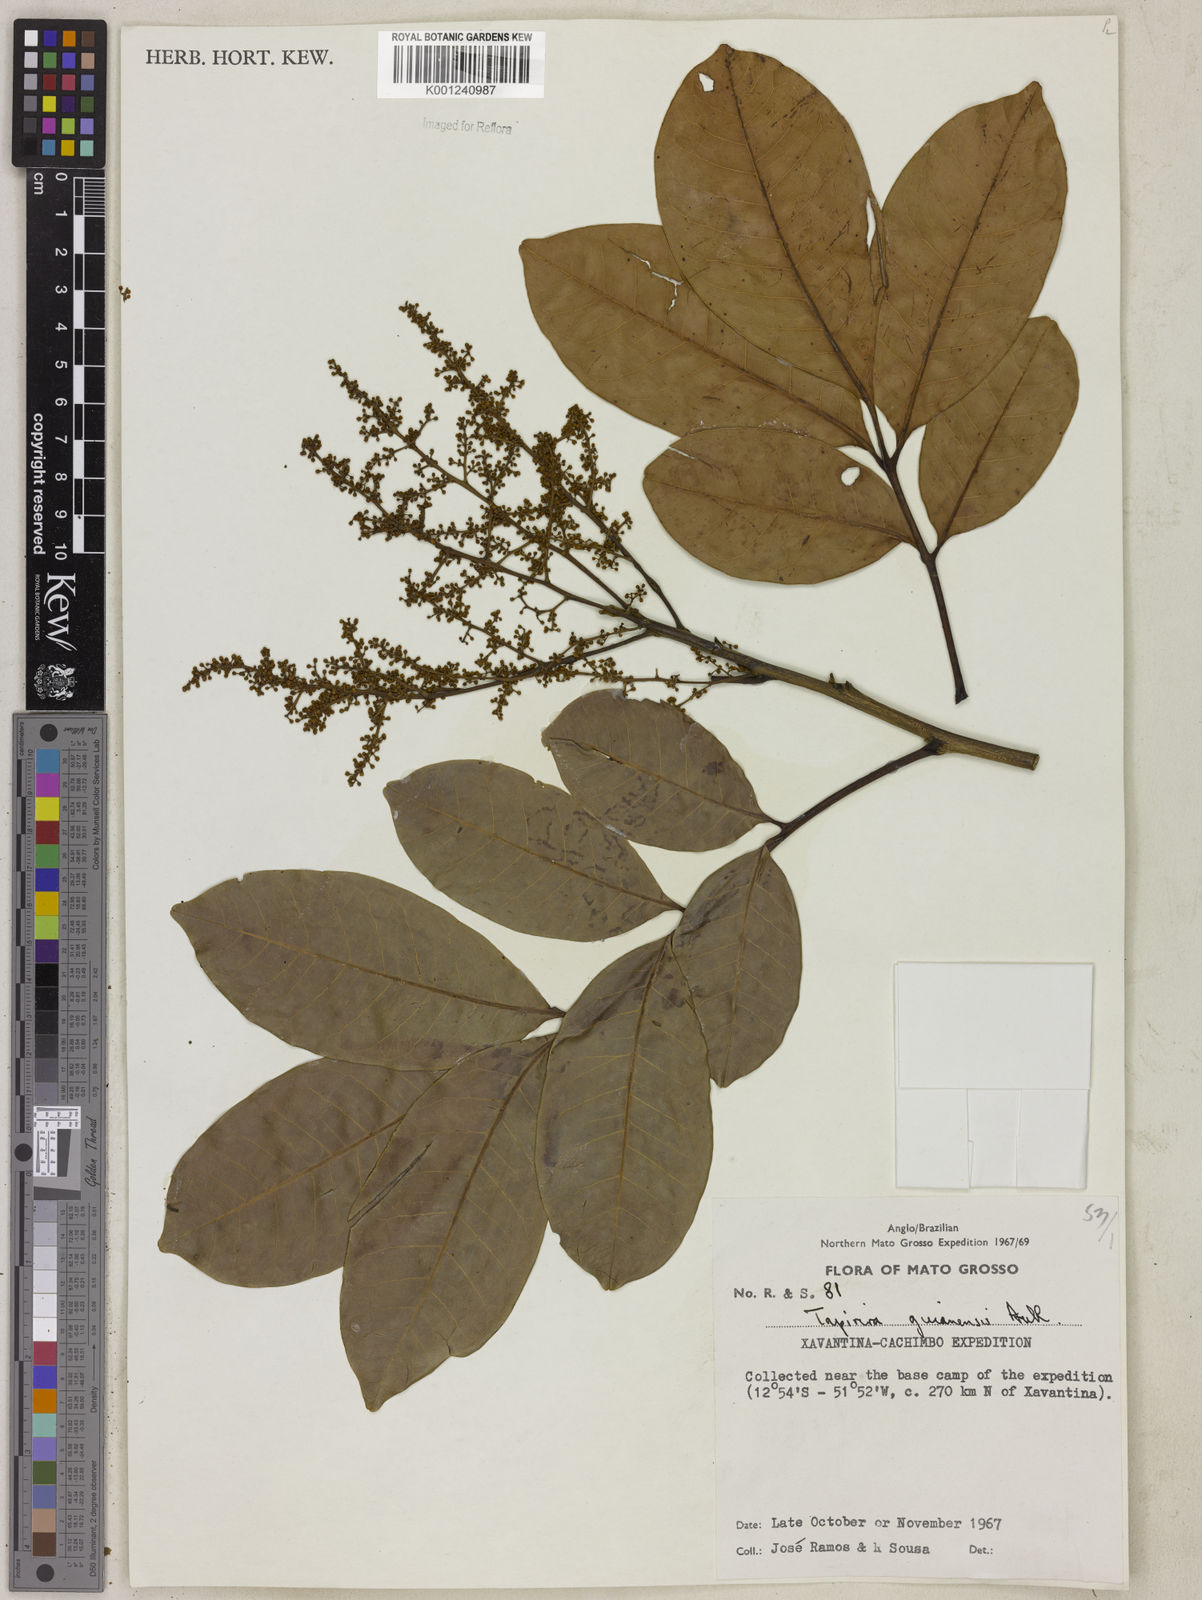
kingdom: Plantae
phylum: Tracheophyta
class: Magnoliopsida
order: Sapindales
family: Anacardiaceae
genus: Tapirira
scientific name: Tapirira guianensis
